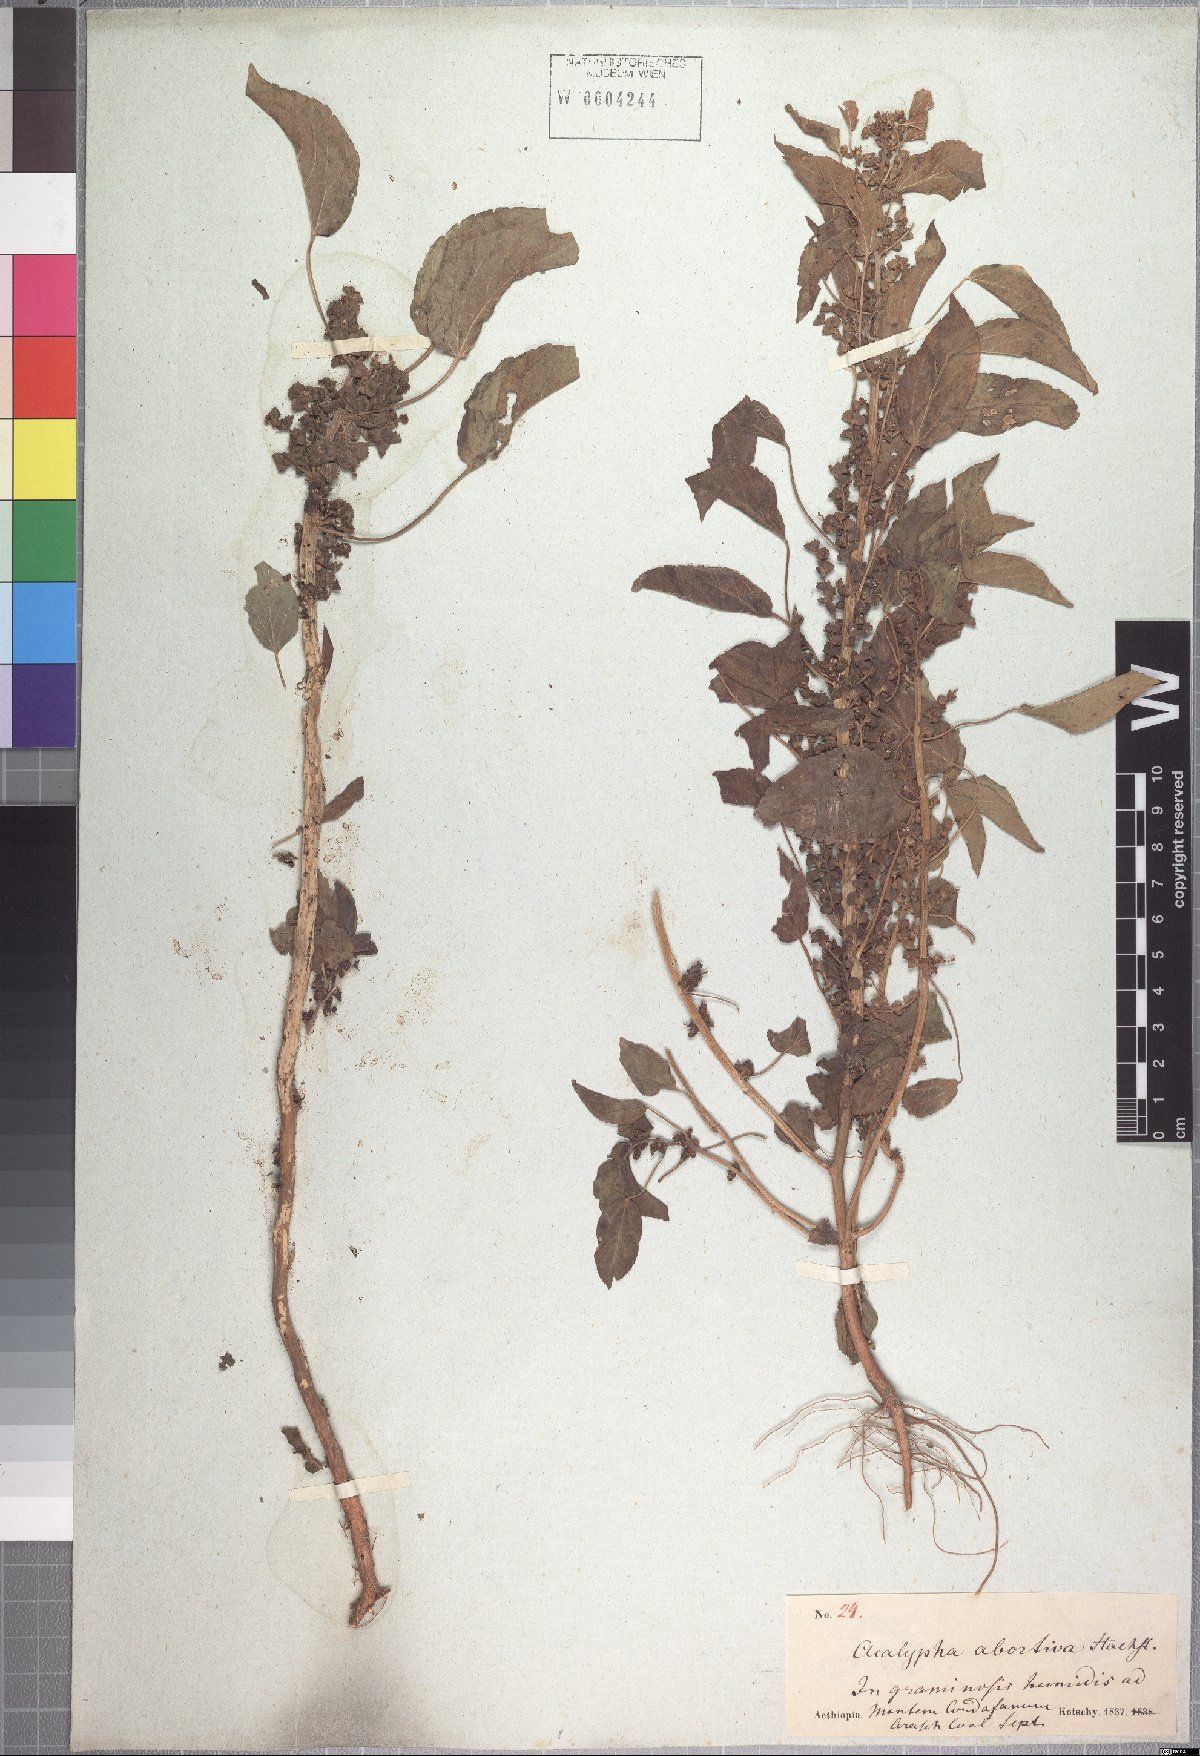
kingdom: Plantae
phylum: Tracheophyta
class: Magnoliopsida
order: Malpighiales
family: Euphorbiaceae
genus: Acalypha
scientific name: Acalypha crenata
